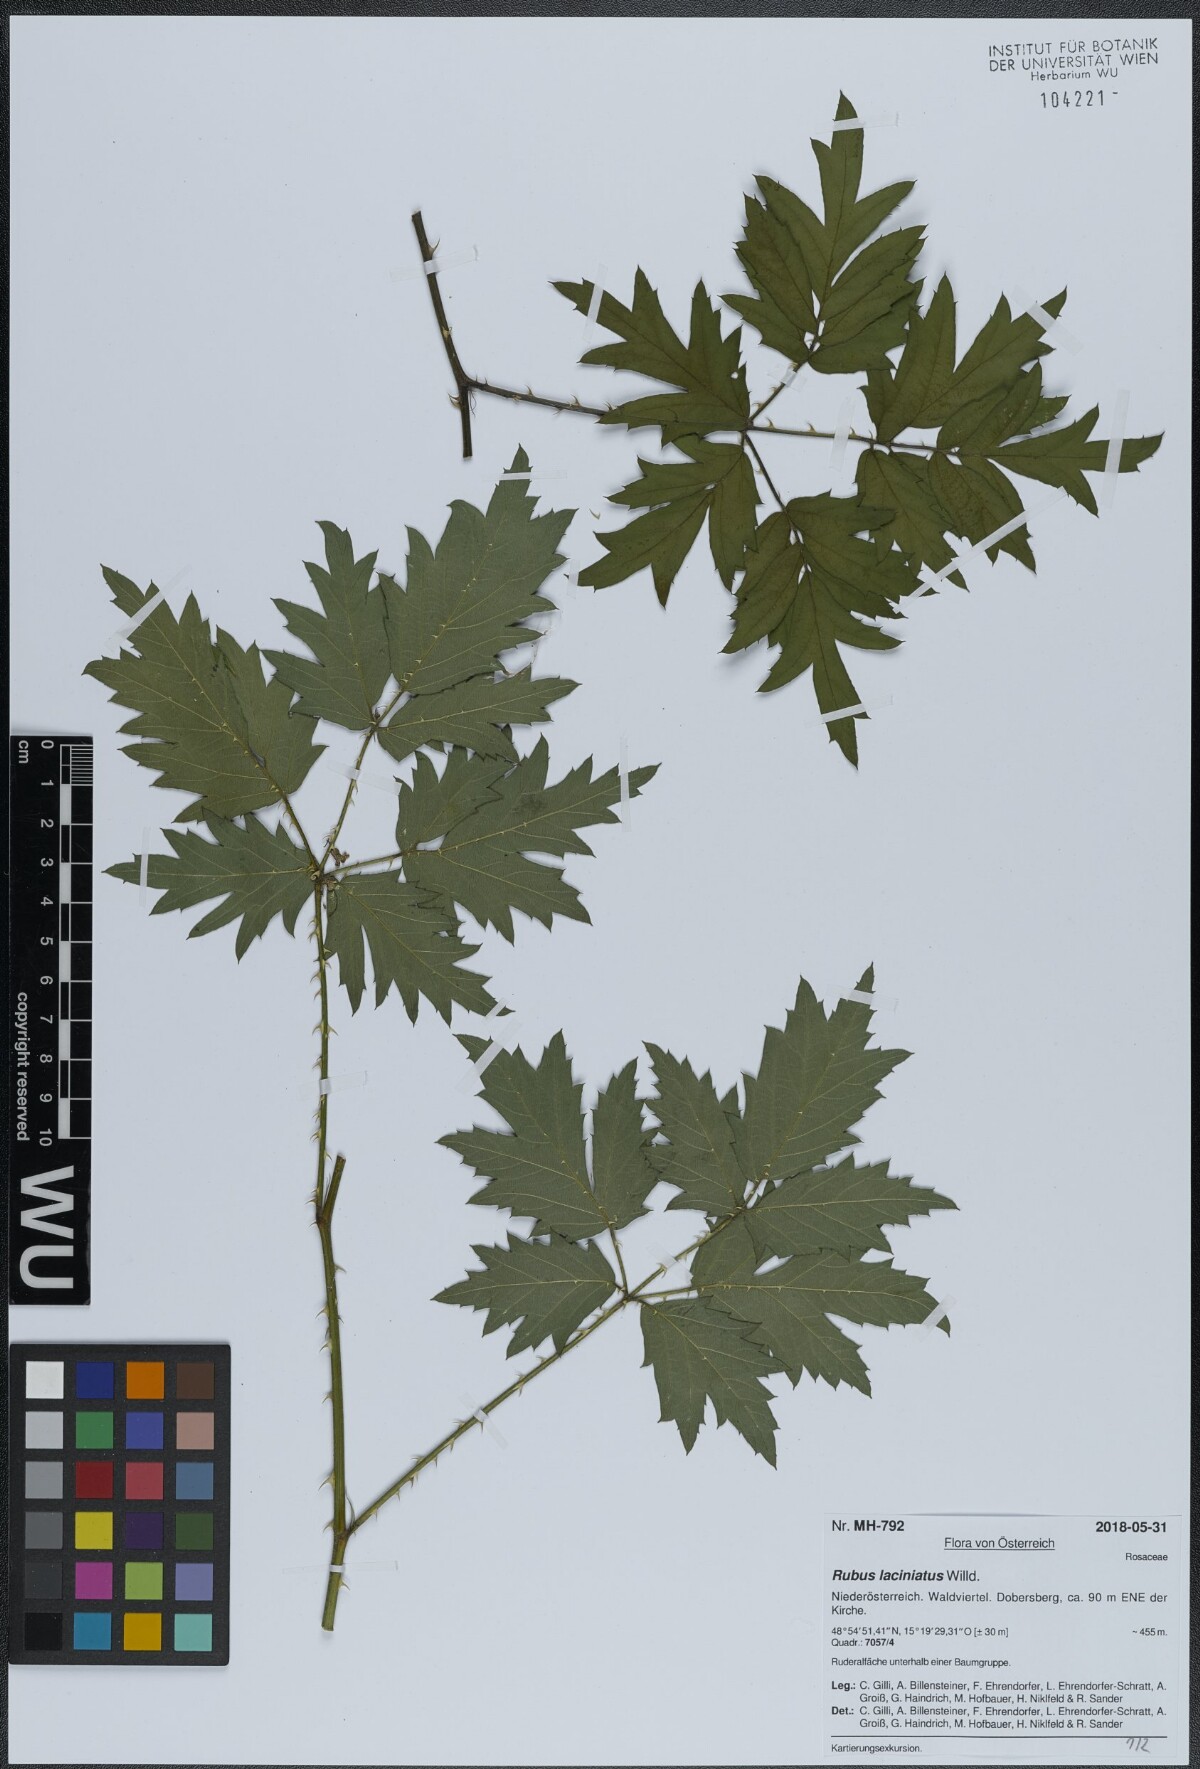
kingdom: Plantae
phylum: Tracheophyta
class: Magnoliopsida
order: Rosales
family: Rosaceae
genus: Rubus
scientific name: Rubus laciniatus
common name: Evergreen blackberry
